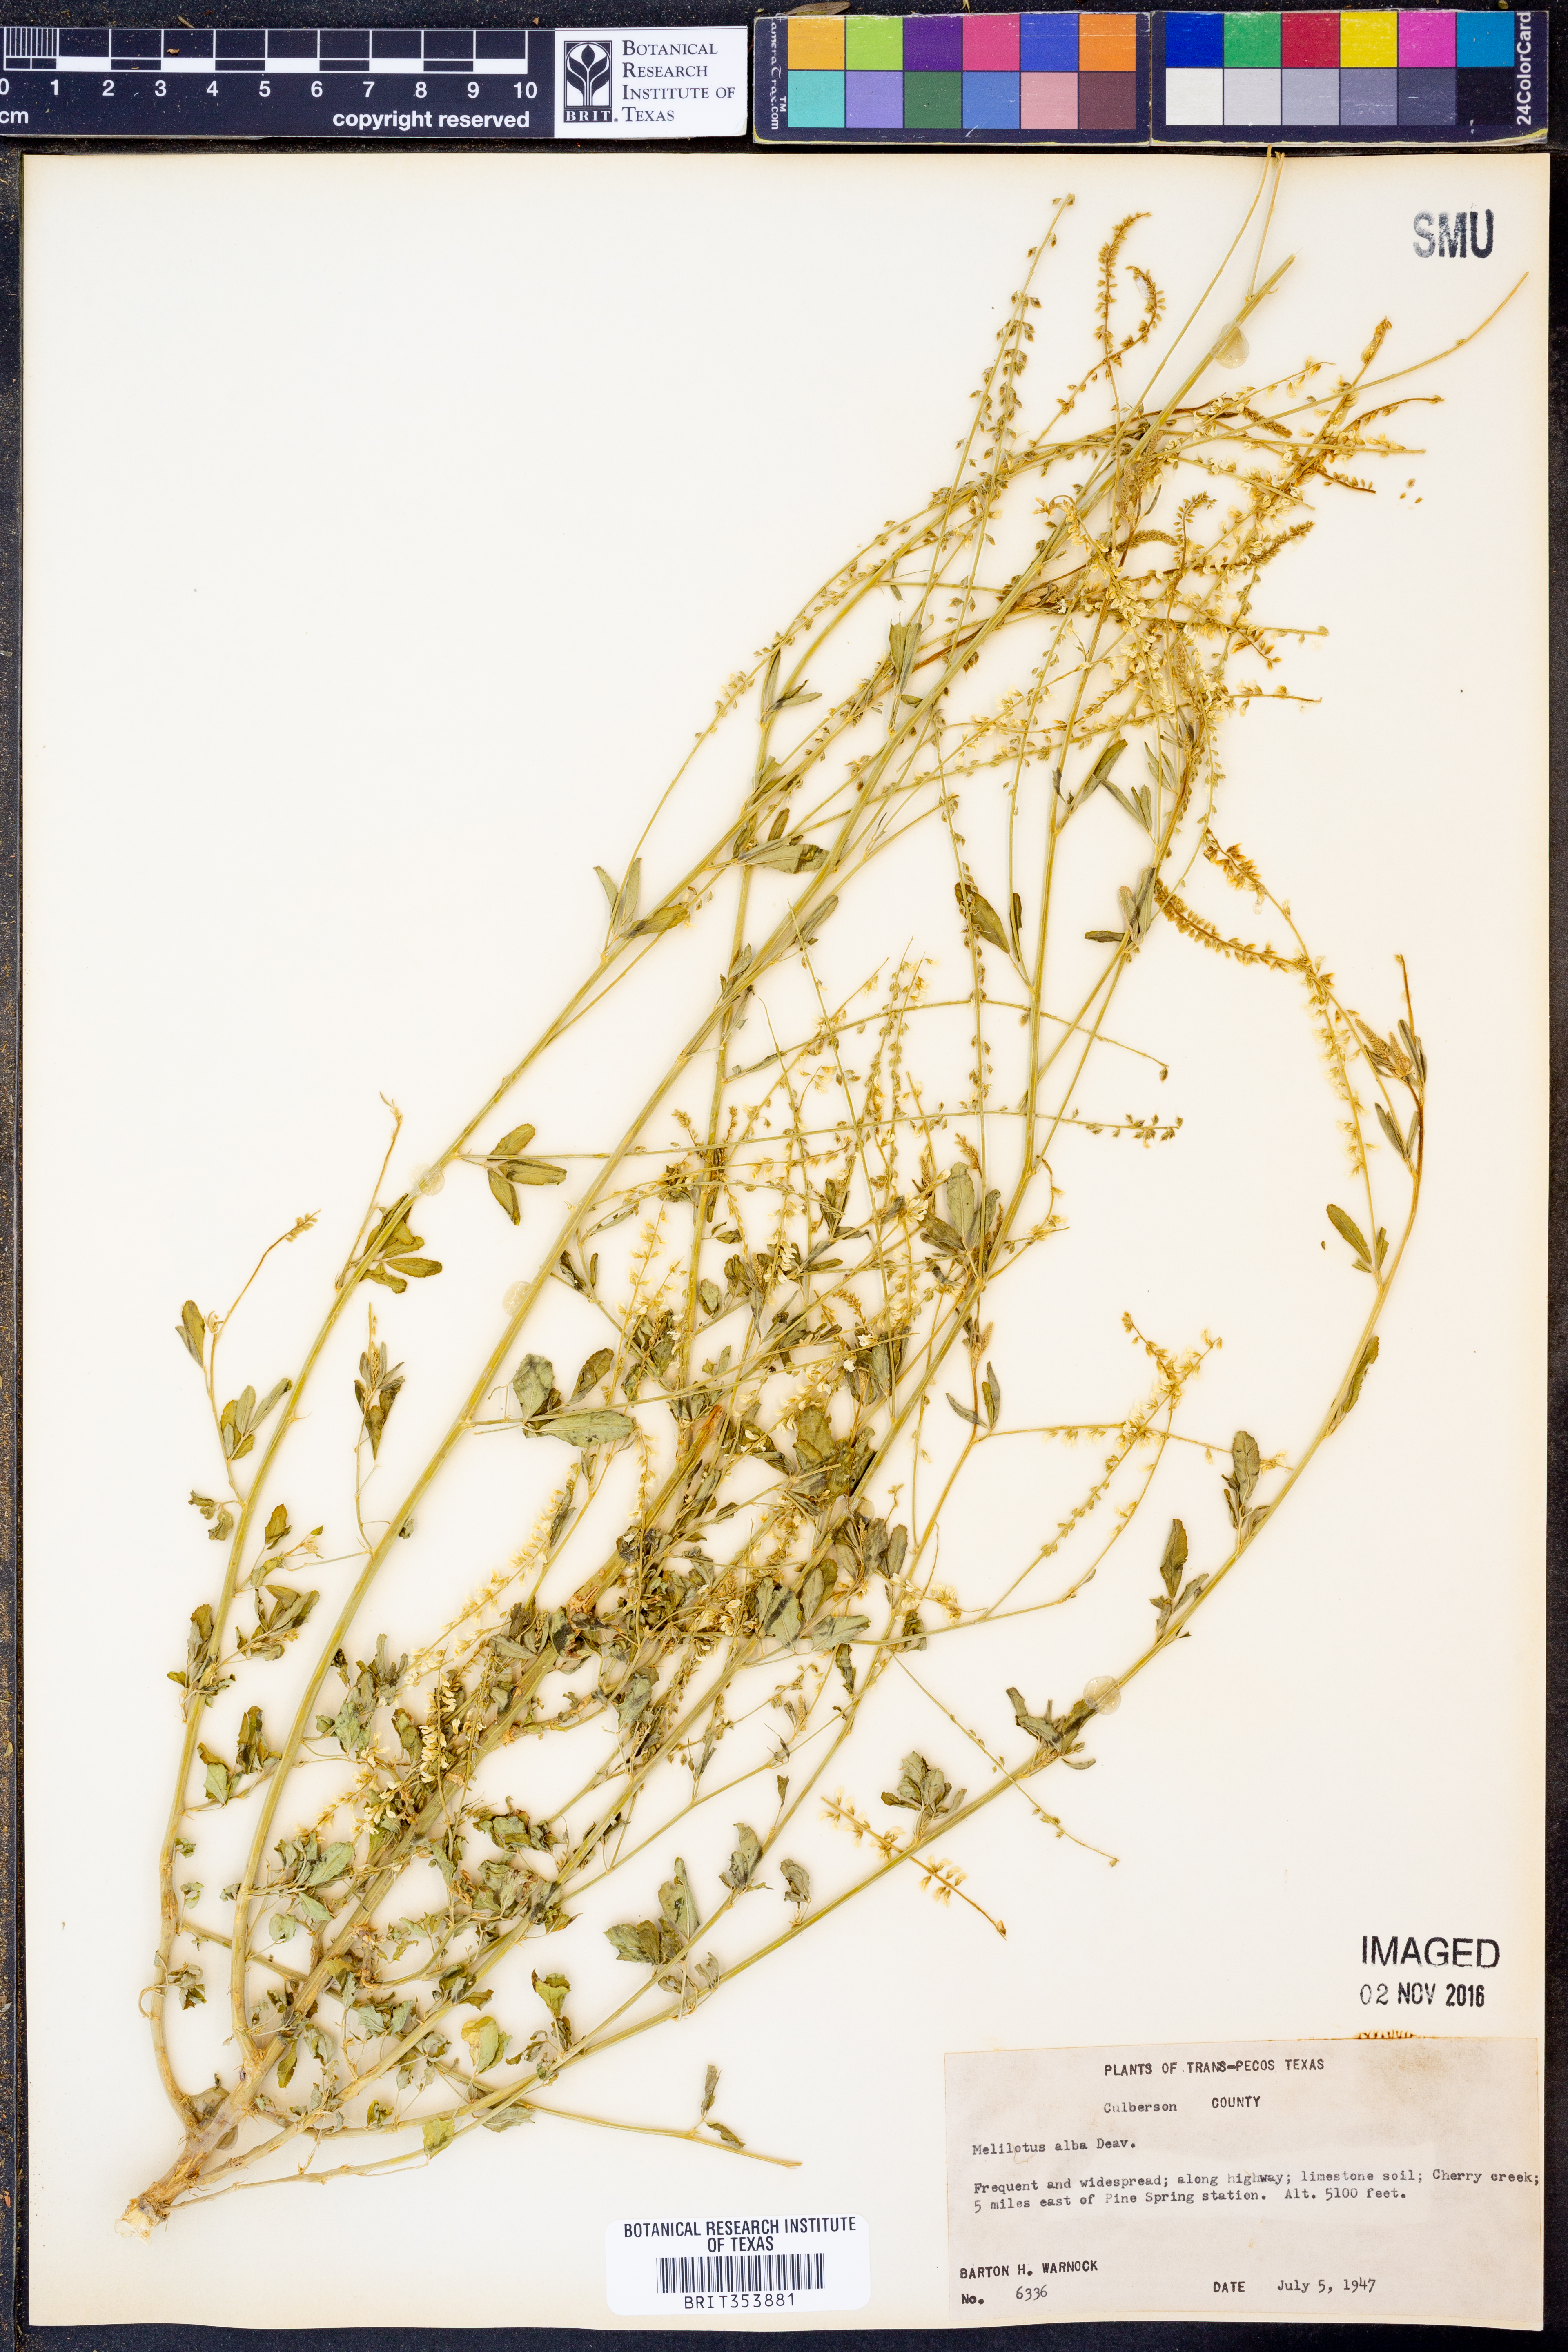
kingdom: Plantae
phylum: Tracheophyta
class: Magnoliopsida
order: Fabales
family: Fabaceae
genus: Melilotus
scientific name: Melilotus albus
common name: White melilot
